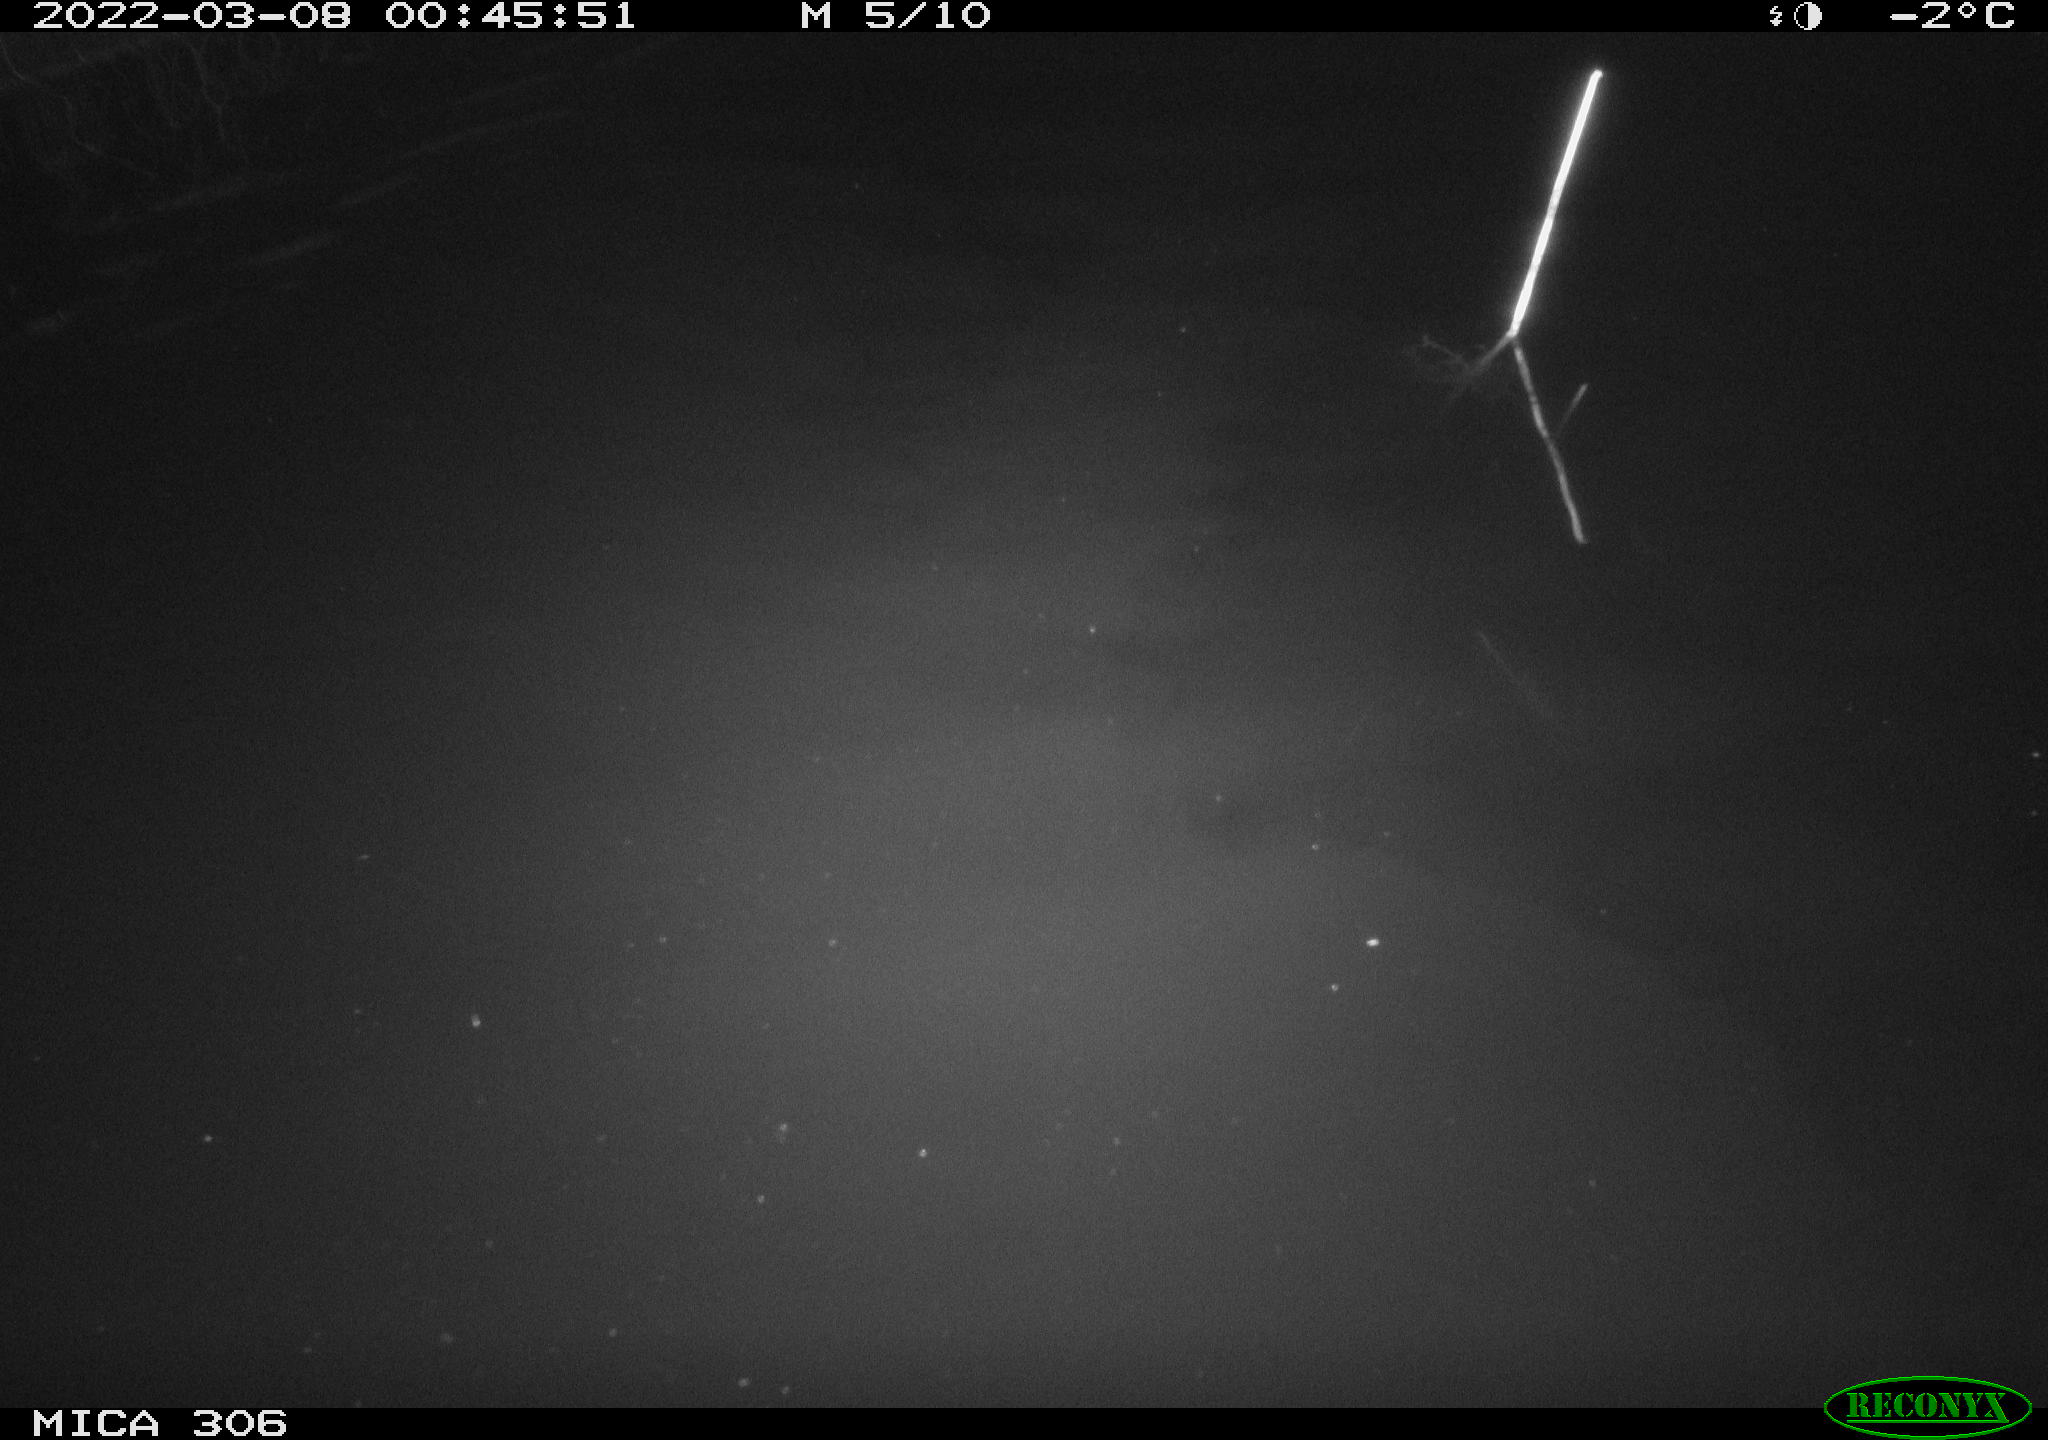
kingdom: Animalia
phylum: Chordata
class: Mammalia
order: Rodentia
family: Cricetidae
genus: Ondatra
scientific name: Ondatra zibethicus
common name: Muskrat
